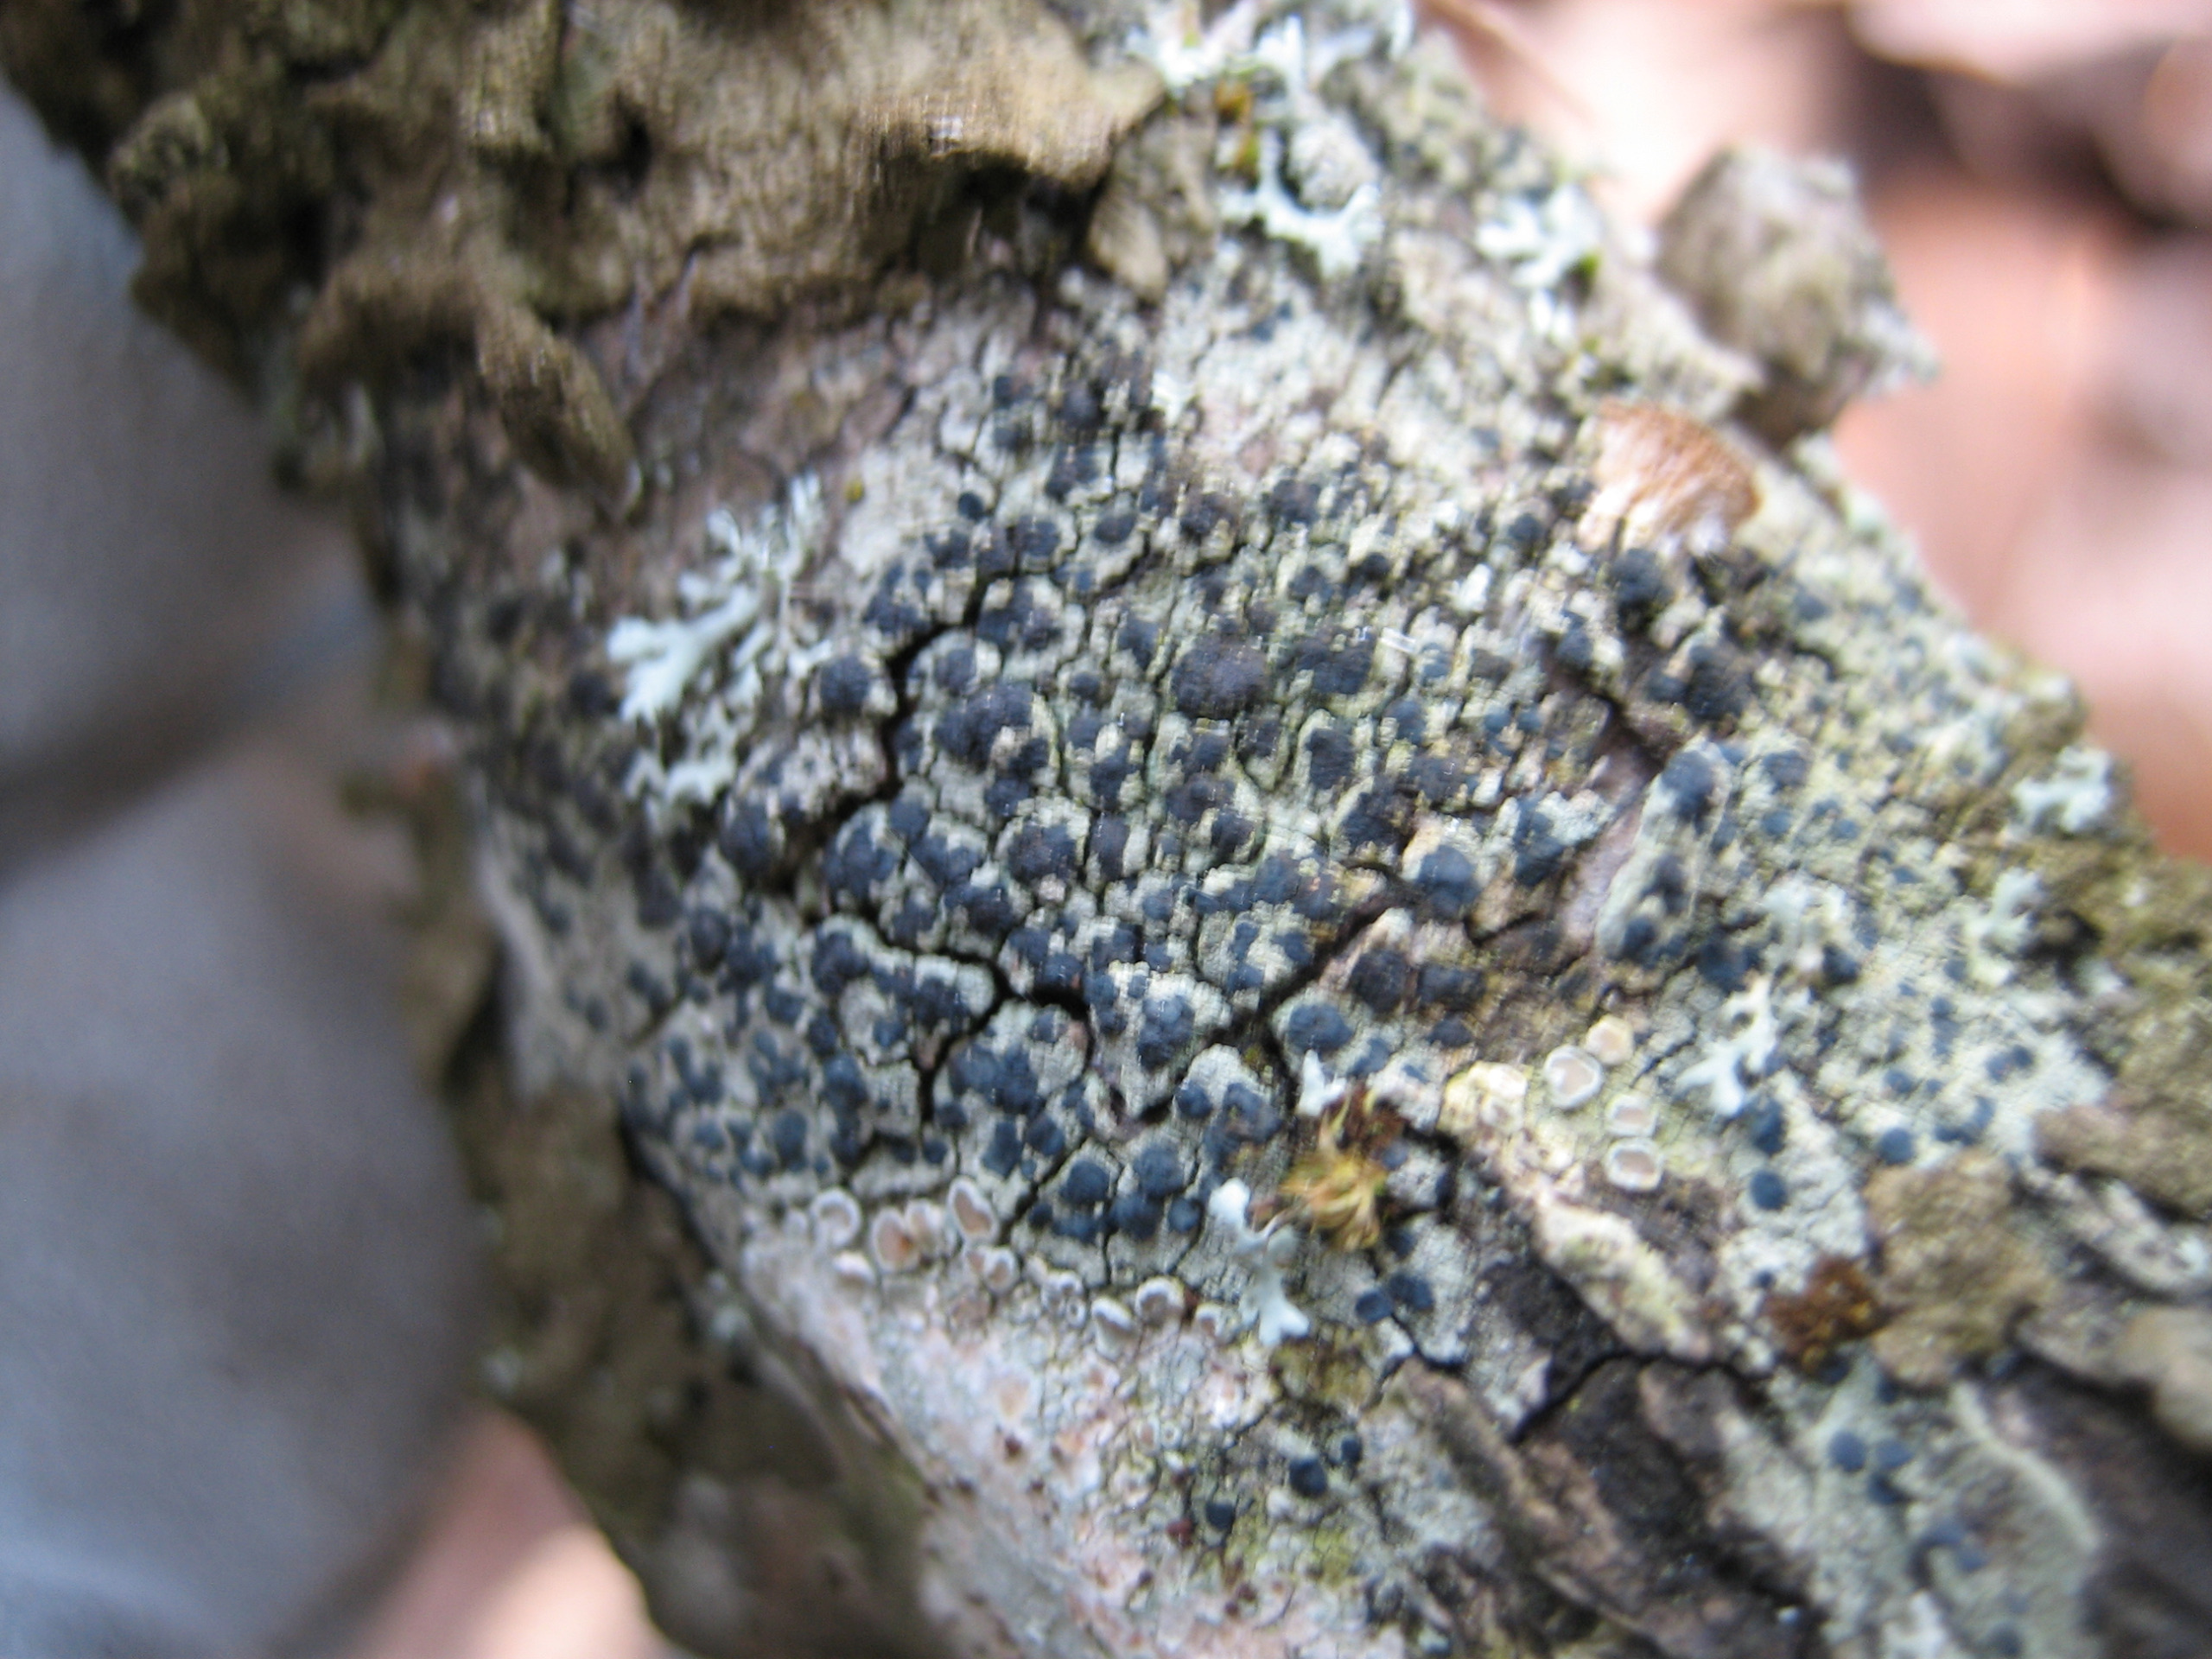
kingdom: Fungi
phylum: Ascomycota
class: Lecanoromycetes
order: Lecanorales
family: Lecanoraceae
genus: Lecidella
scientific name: Lecidella elaeochroma
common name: Grågrøn skivelav
